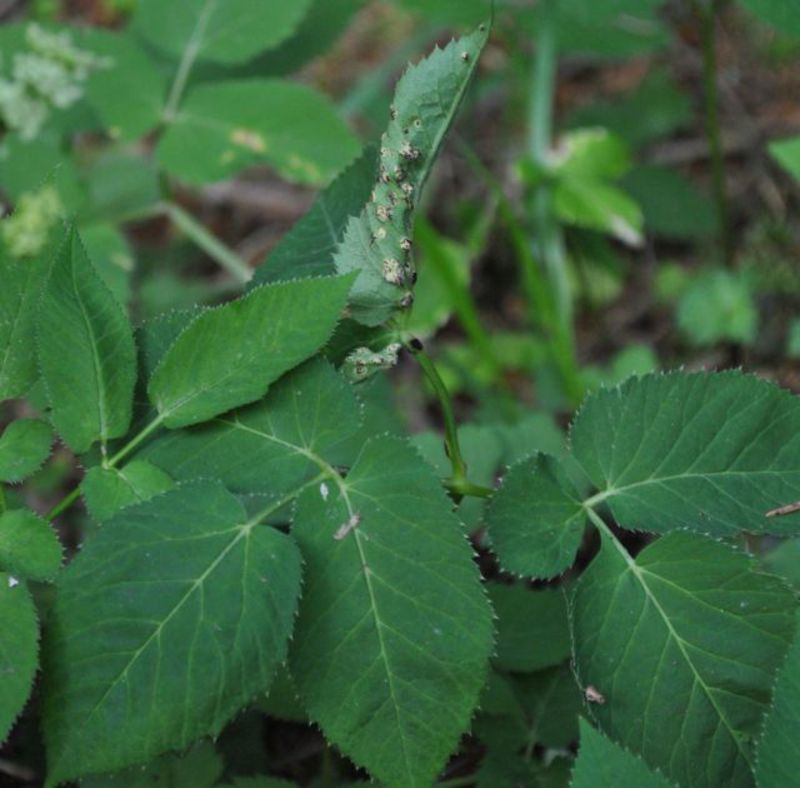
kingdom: Fungi
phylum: Basidiomycota
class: Pucciniomycetes
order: Pucciniales
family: Pucciniaceae
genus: Puccinia
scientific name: Puccinia aegopodii
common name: Ground elder rust
